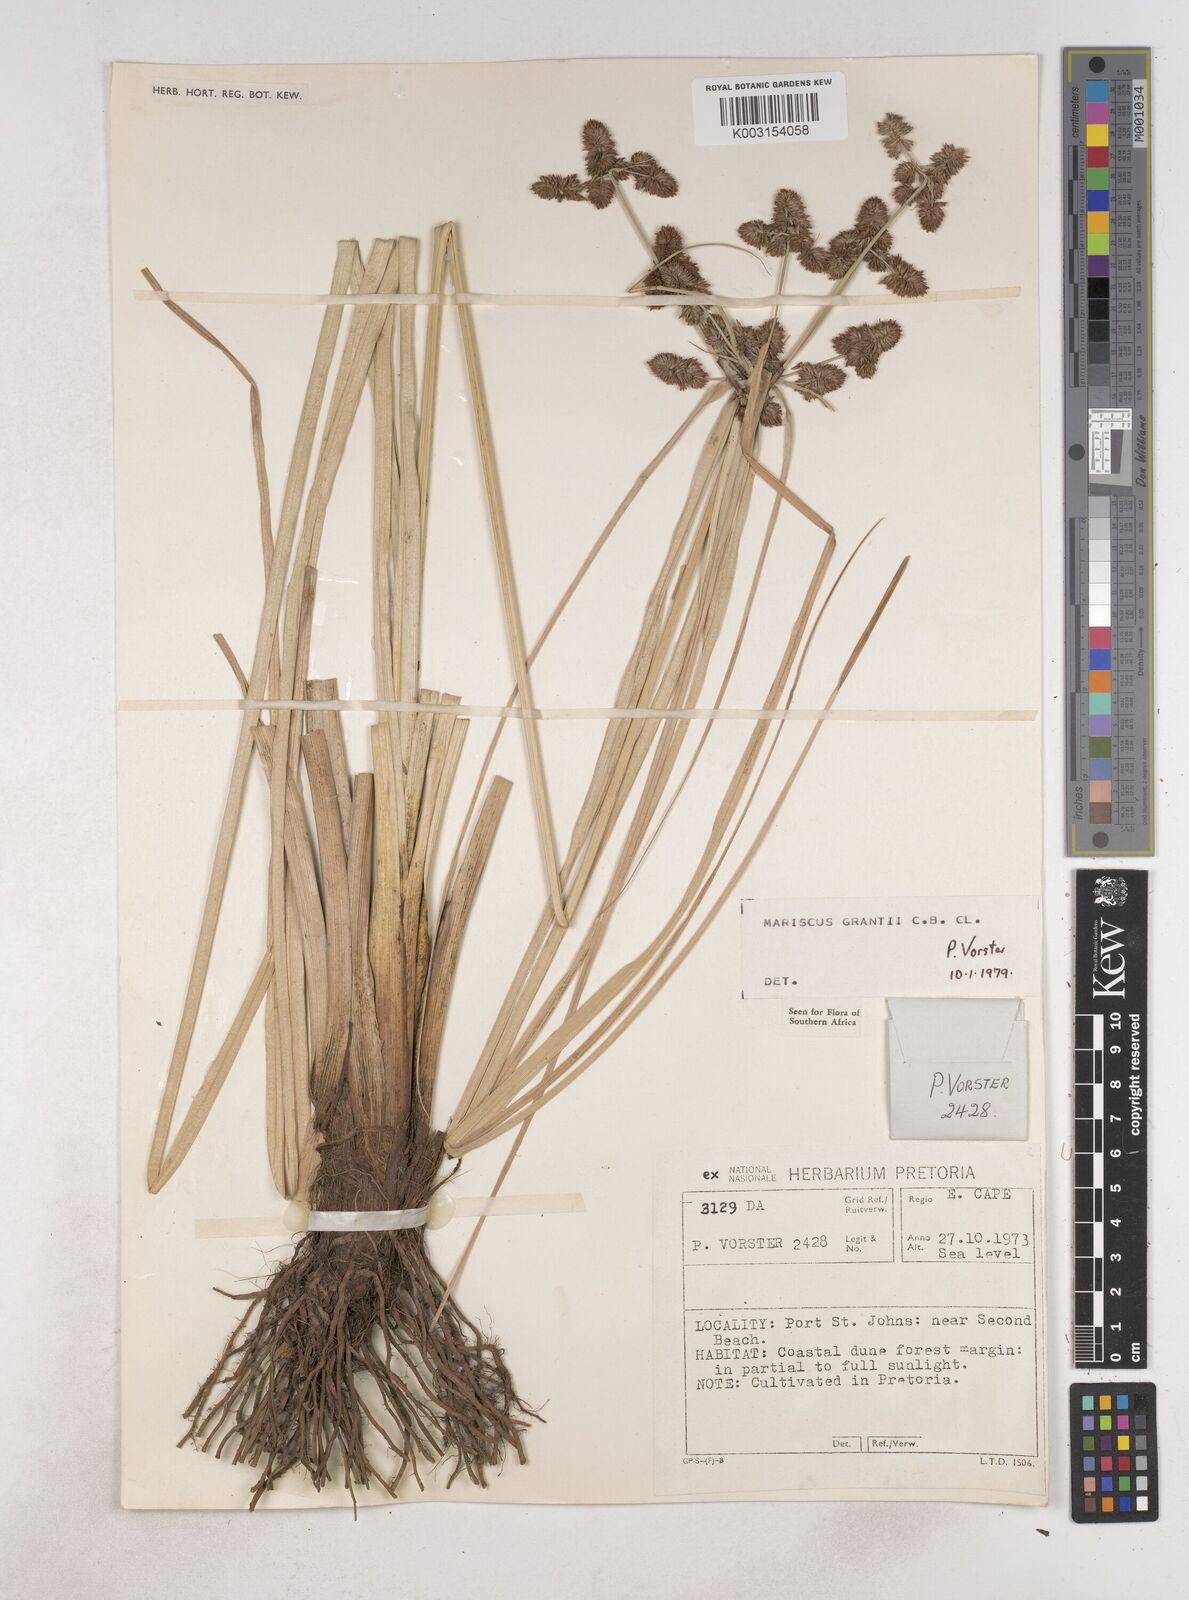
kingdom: Plantae
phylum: Tracheophyta
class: Liliopsida
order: Poales
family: Cyperaceae
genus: Cyperus
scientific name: Cyperus owanii
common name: Owan's flatsedge
